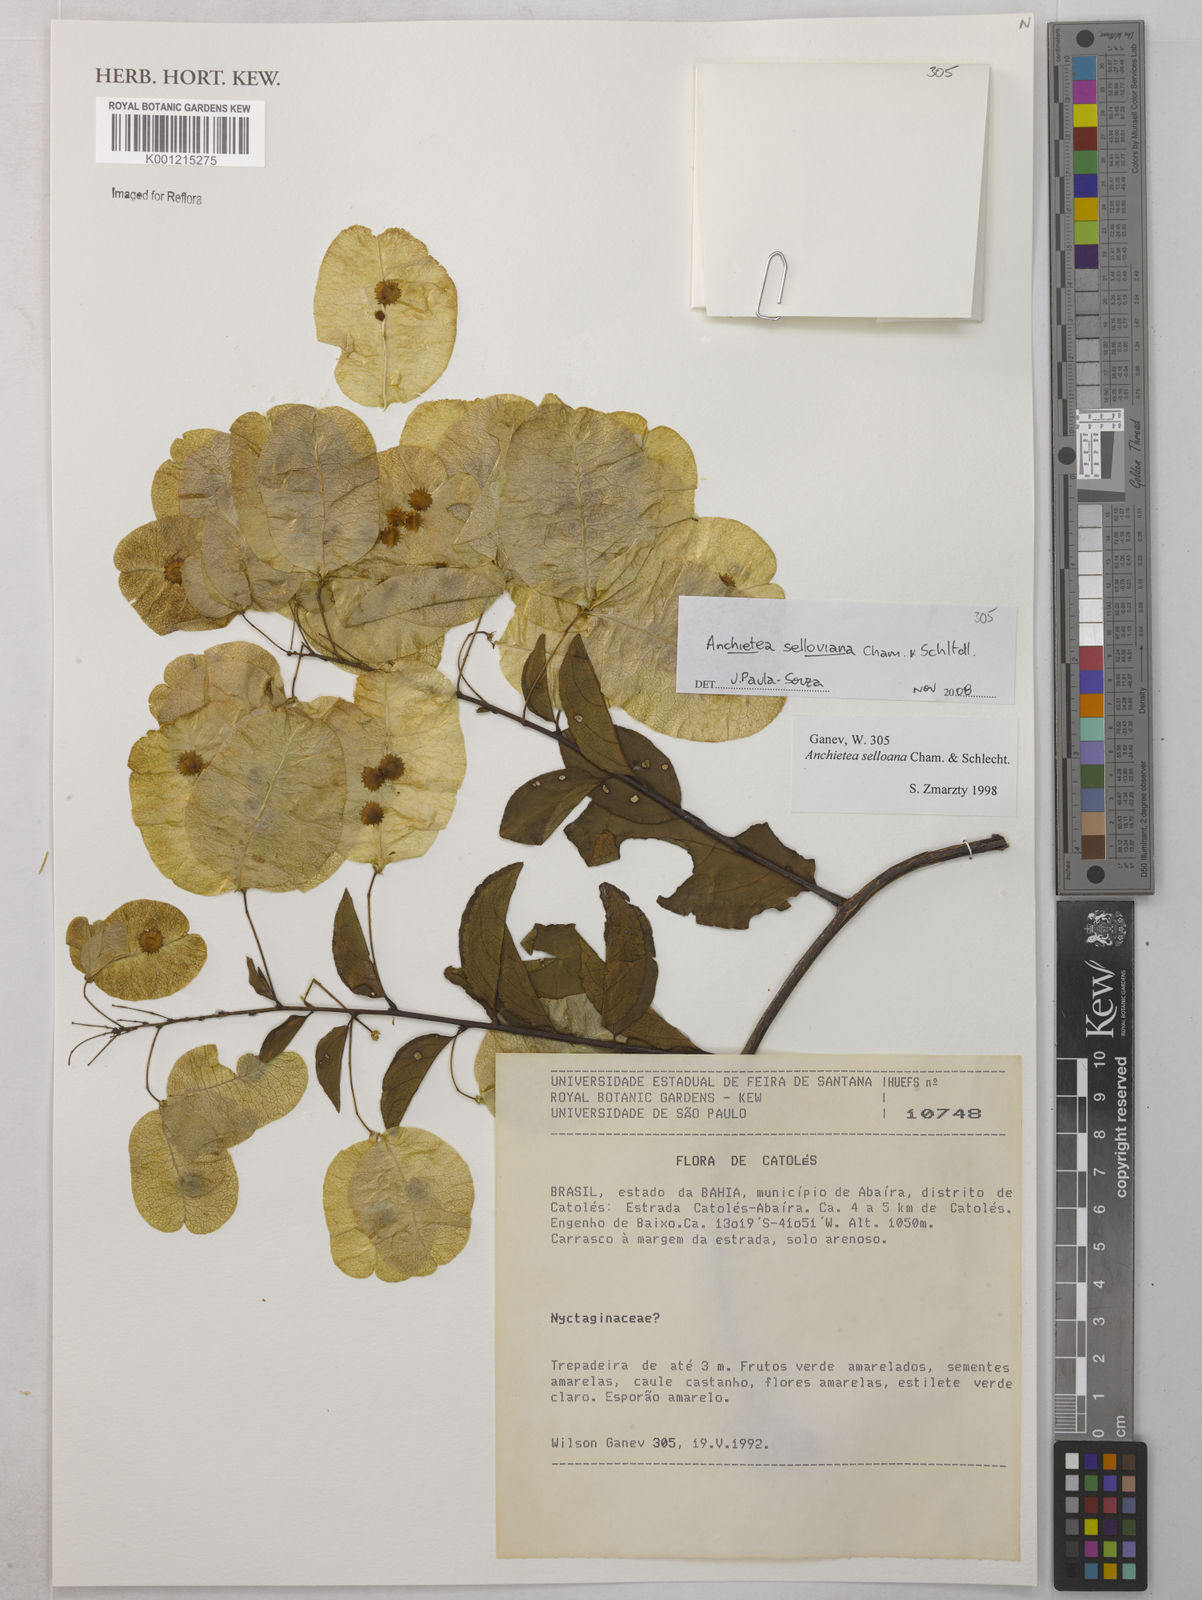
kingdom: Plantae
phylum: Tracheophyta
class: Magnoliopsida
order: Malpighiales
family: Violaceae
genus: Anchietea
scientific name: Anchietea sellowiana
